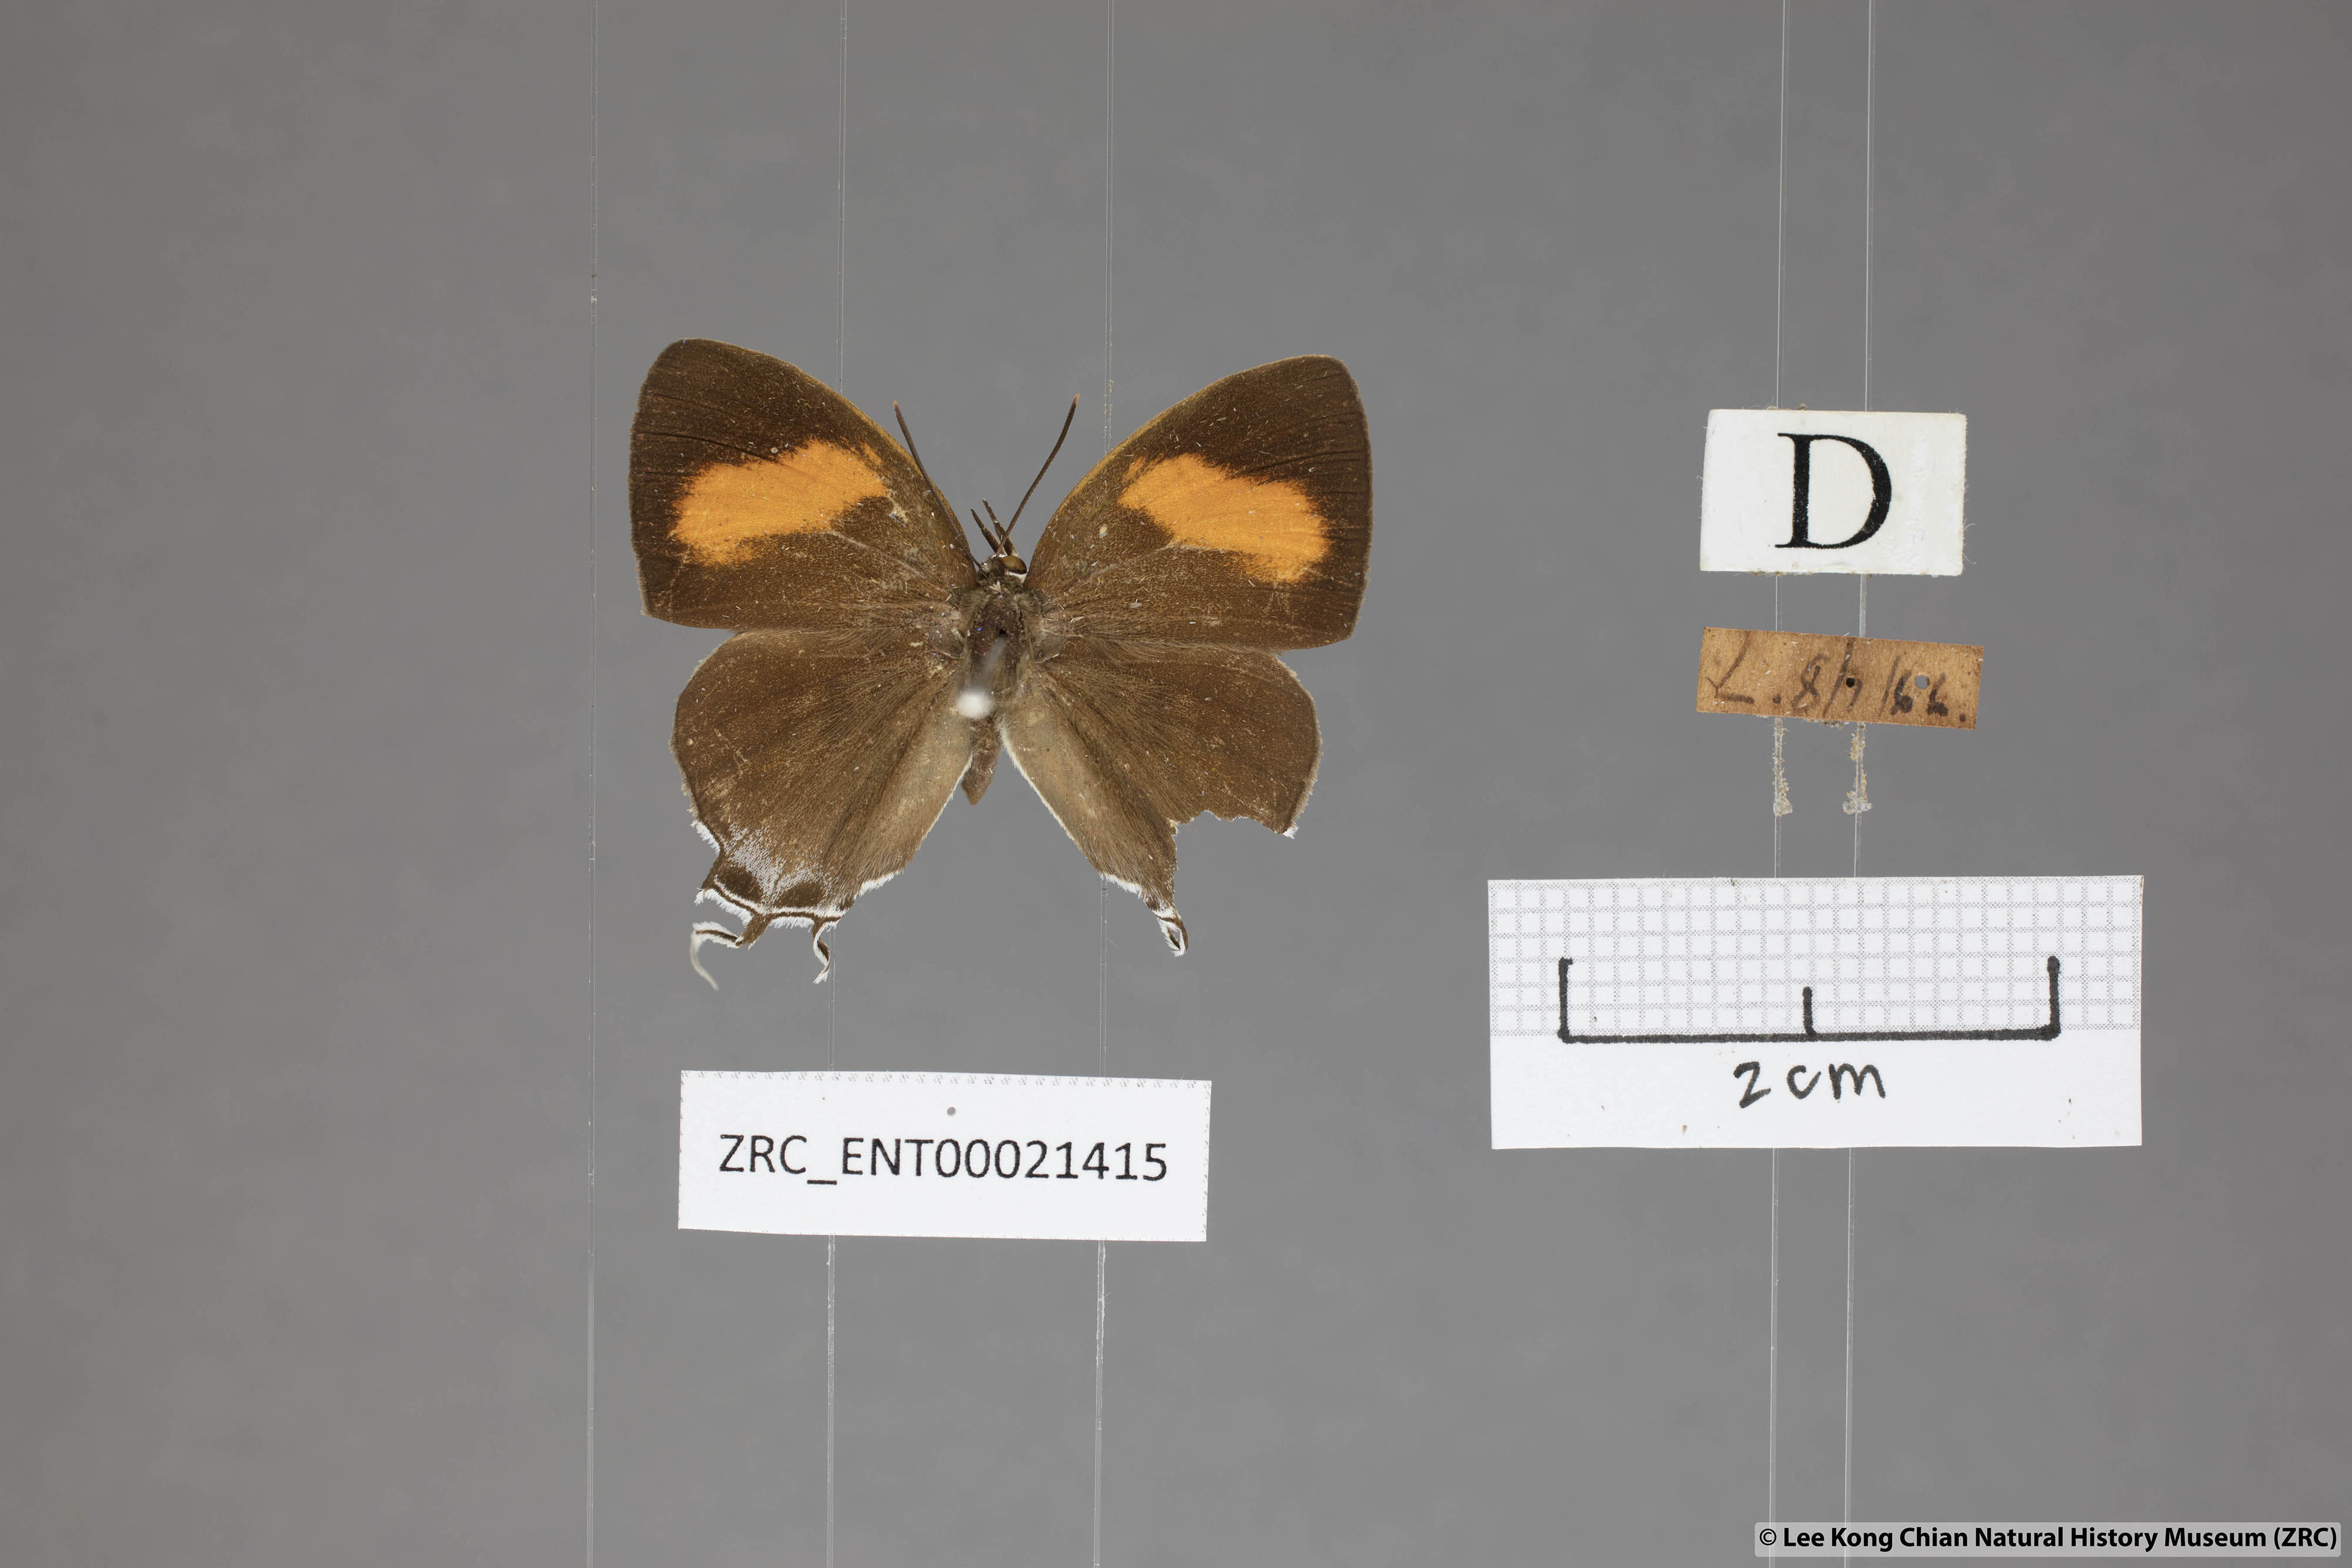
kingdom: Animalia
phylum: Arthropoda
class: Insecta
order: Lepidoptera
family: Lycaenidae
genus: Drupadia
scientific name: Drupadia theda
